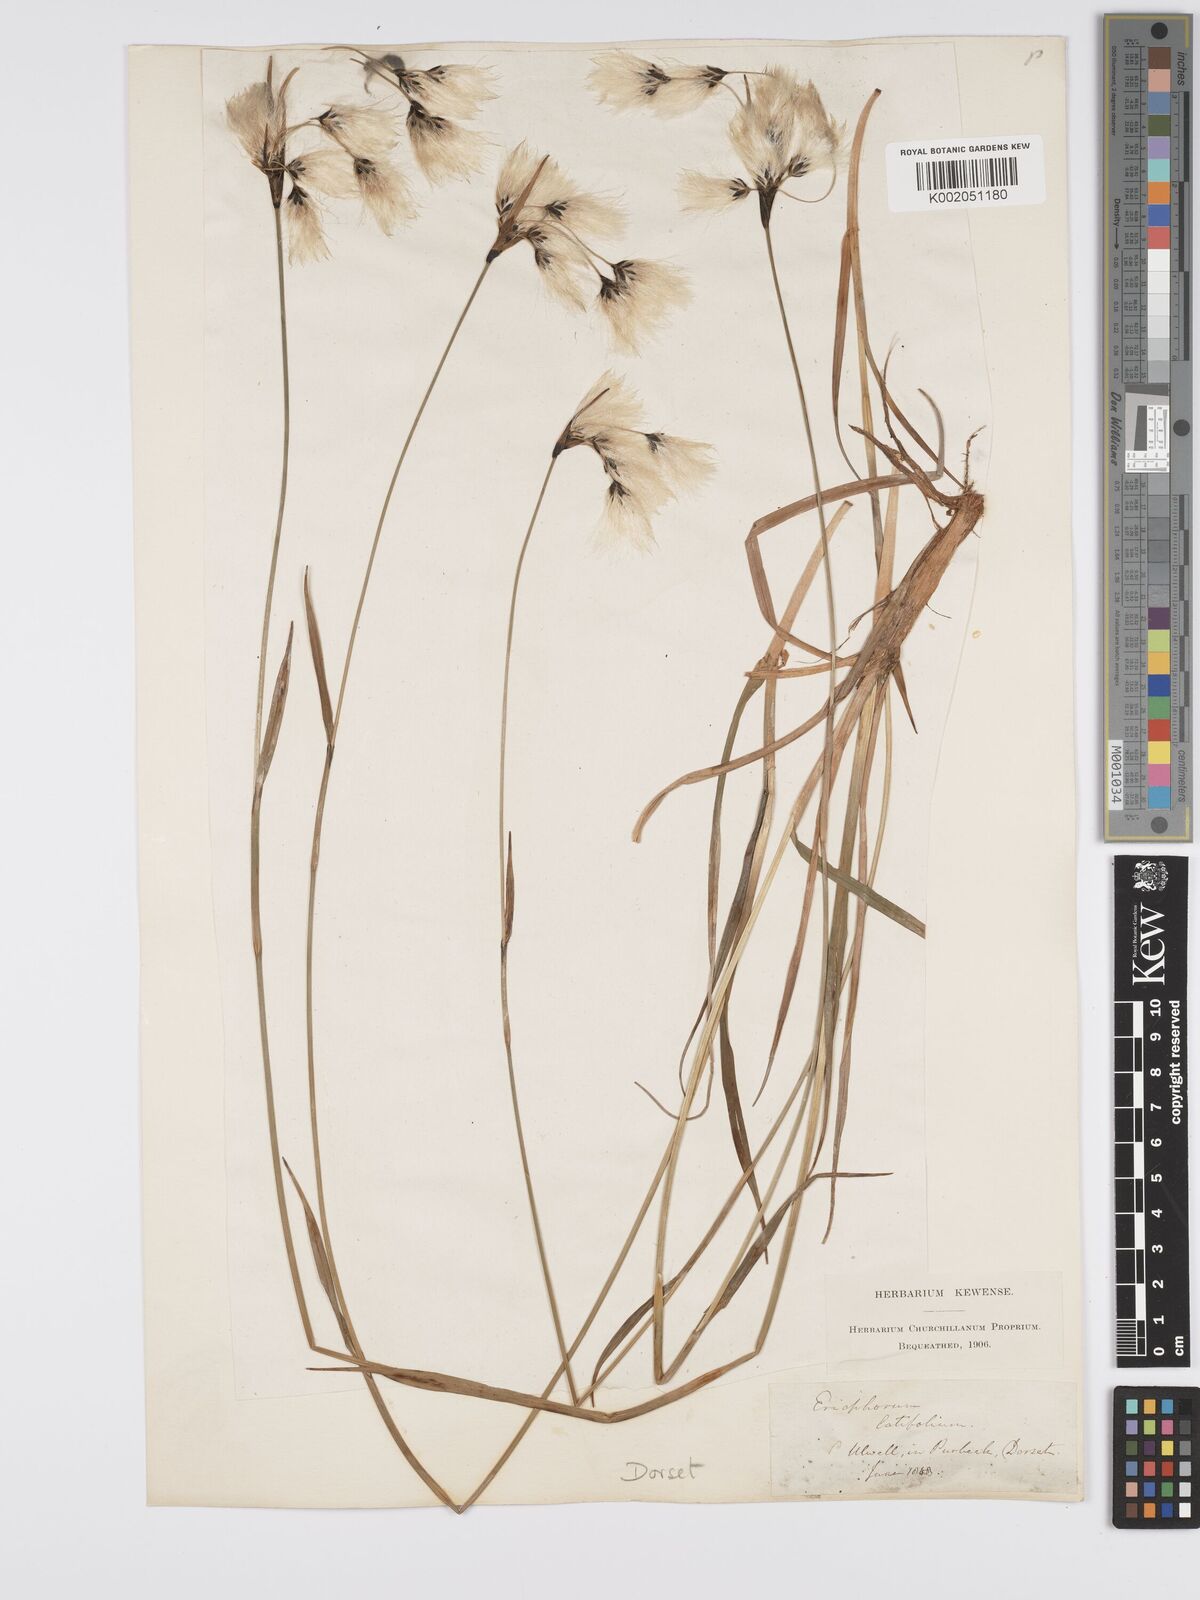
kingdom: Plantae
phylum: Tracheophyta
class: Liliopsida
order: Poales
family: Cyperaceae
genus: Eriophorum
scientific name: Eriophorum latifolium
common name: Broad-leaved cottongrass
